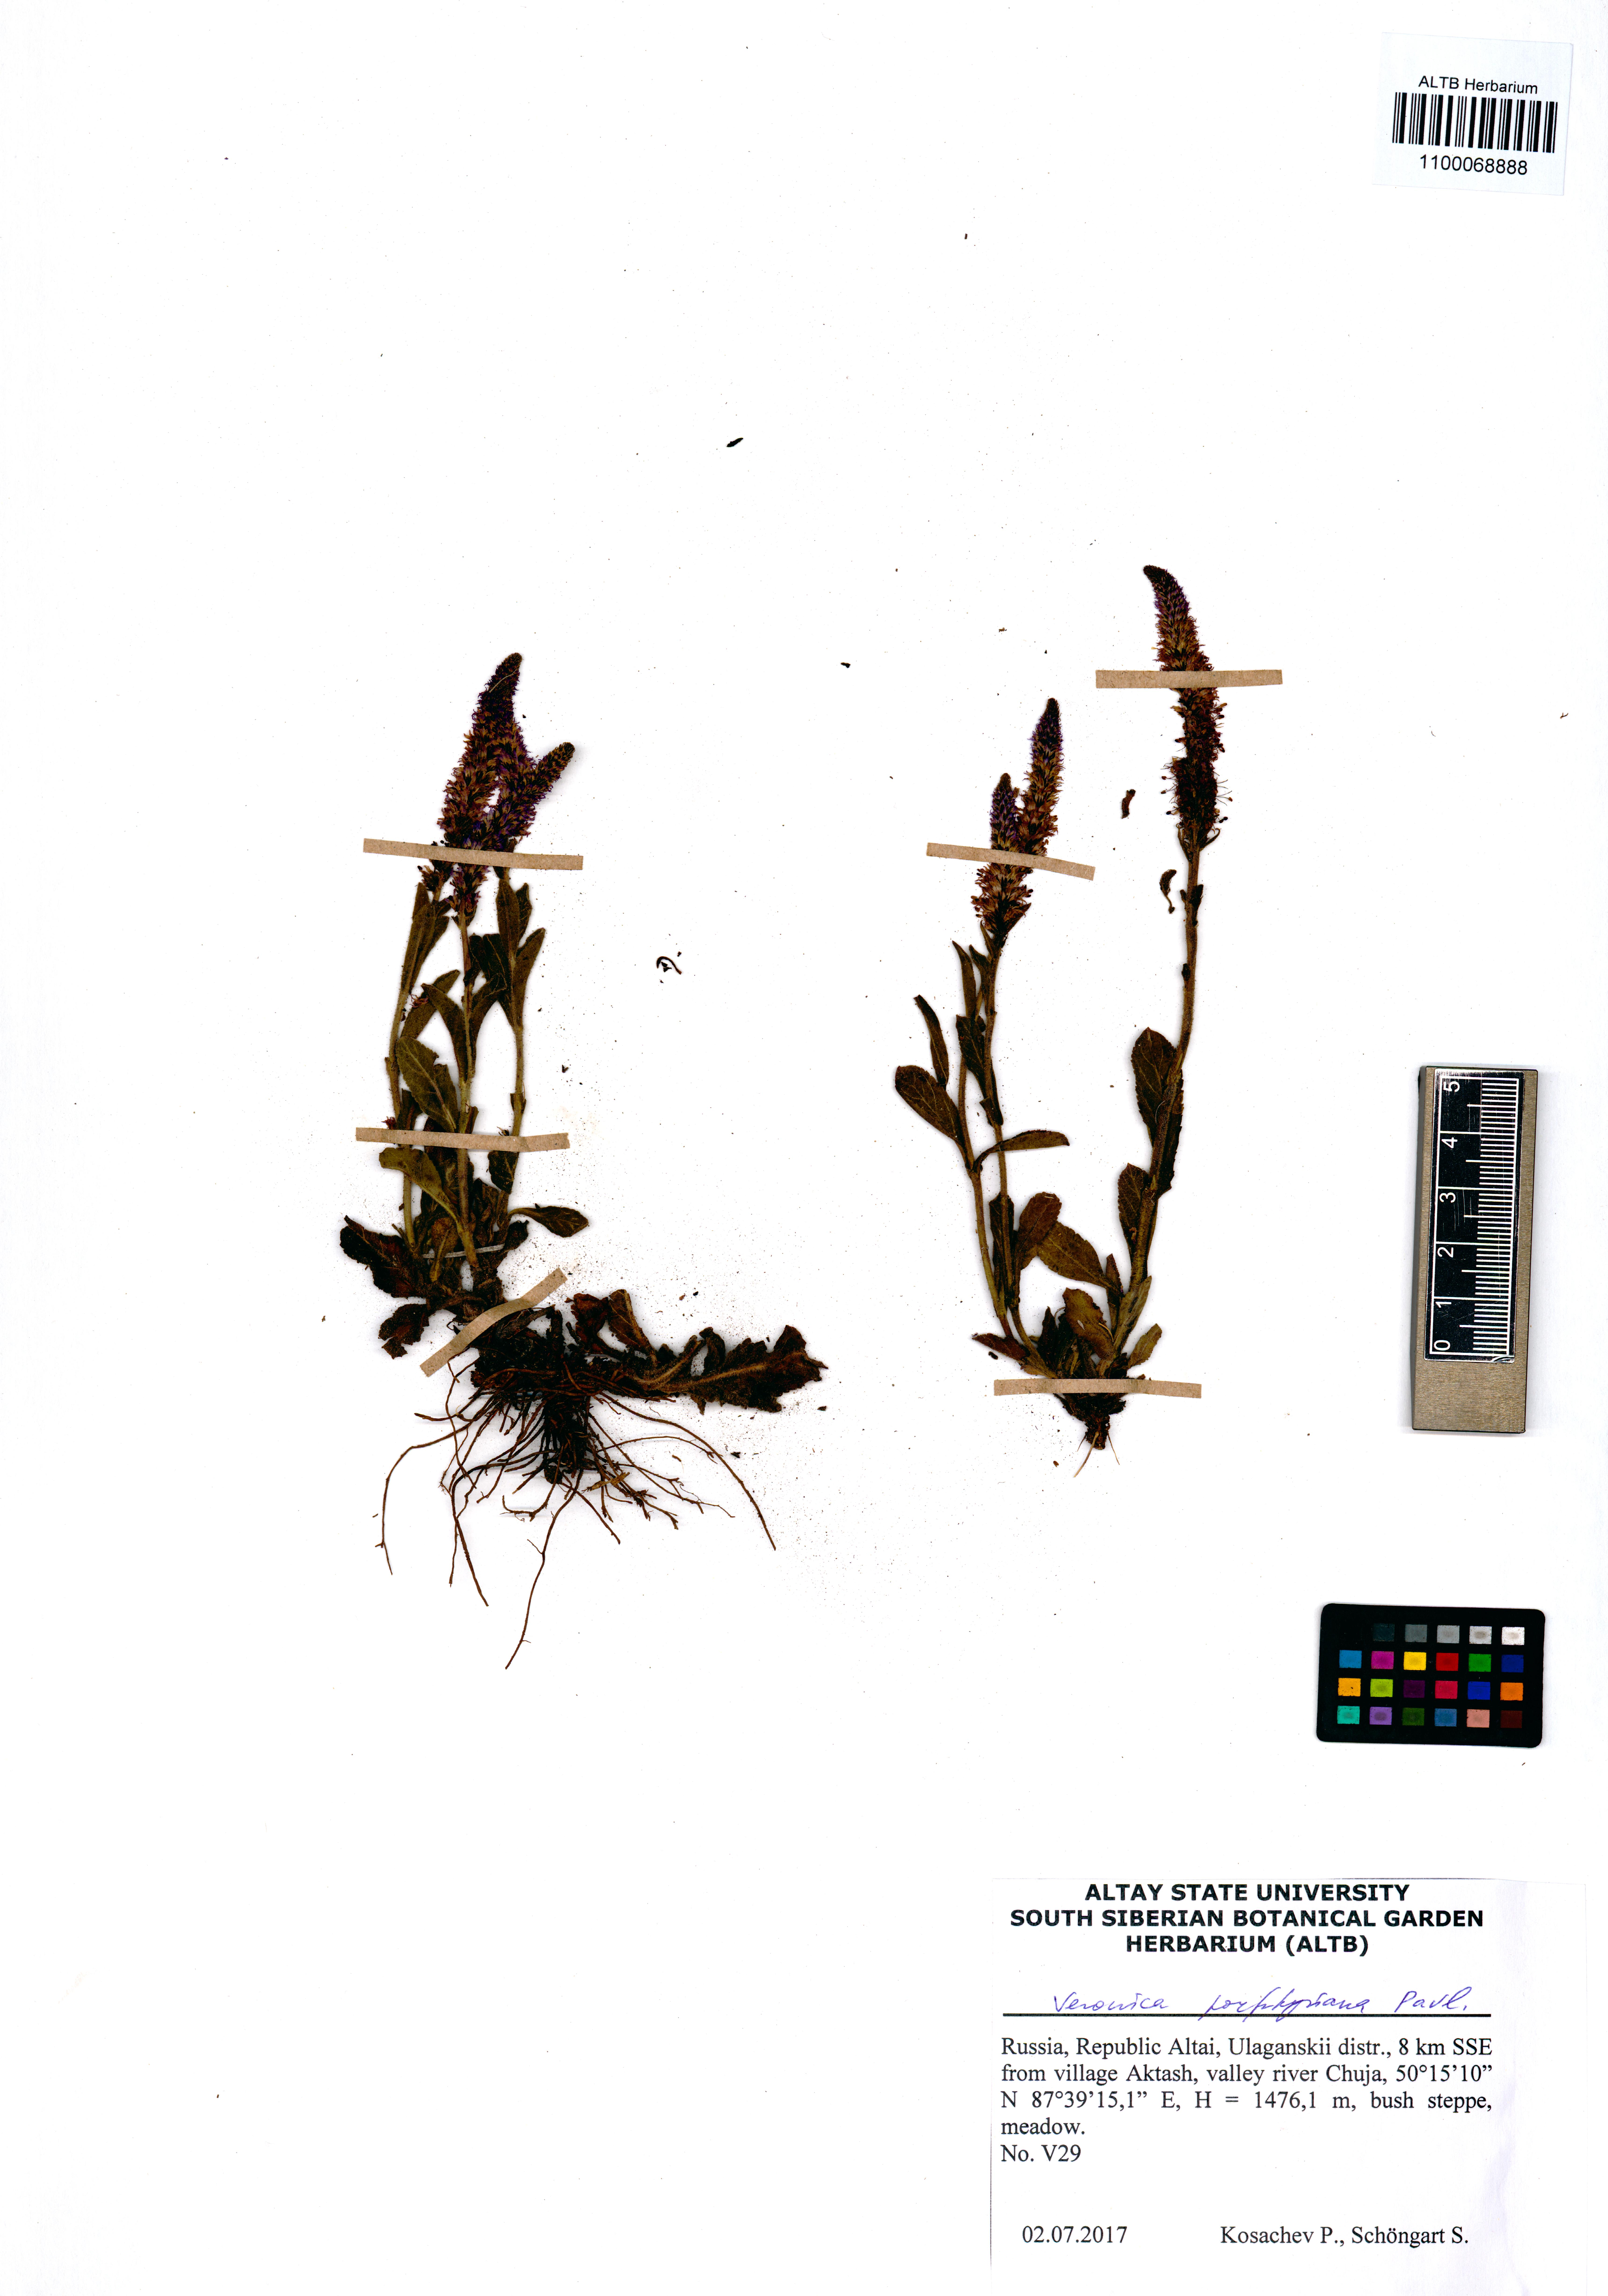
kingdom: Plantae
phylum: Tracheophyta
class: Magnoliopsida
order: Lamiales
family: Plantaginaceae
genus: Veronica
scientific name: Veronica porphyriana
